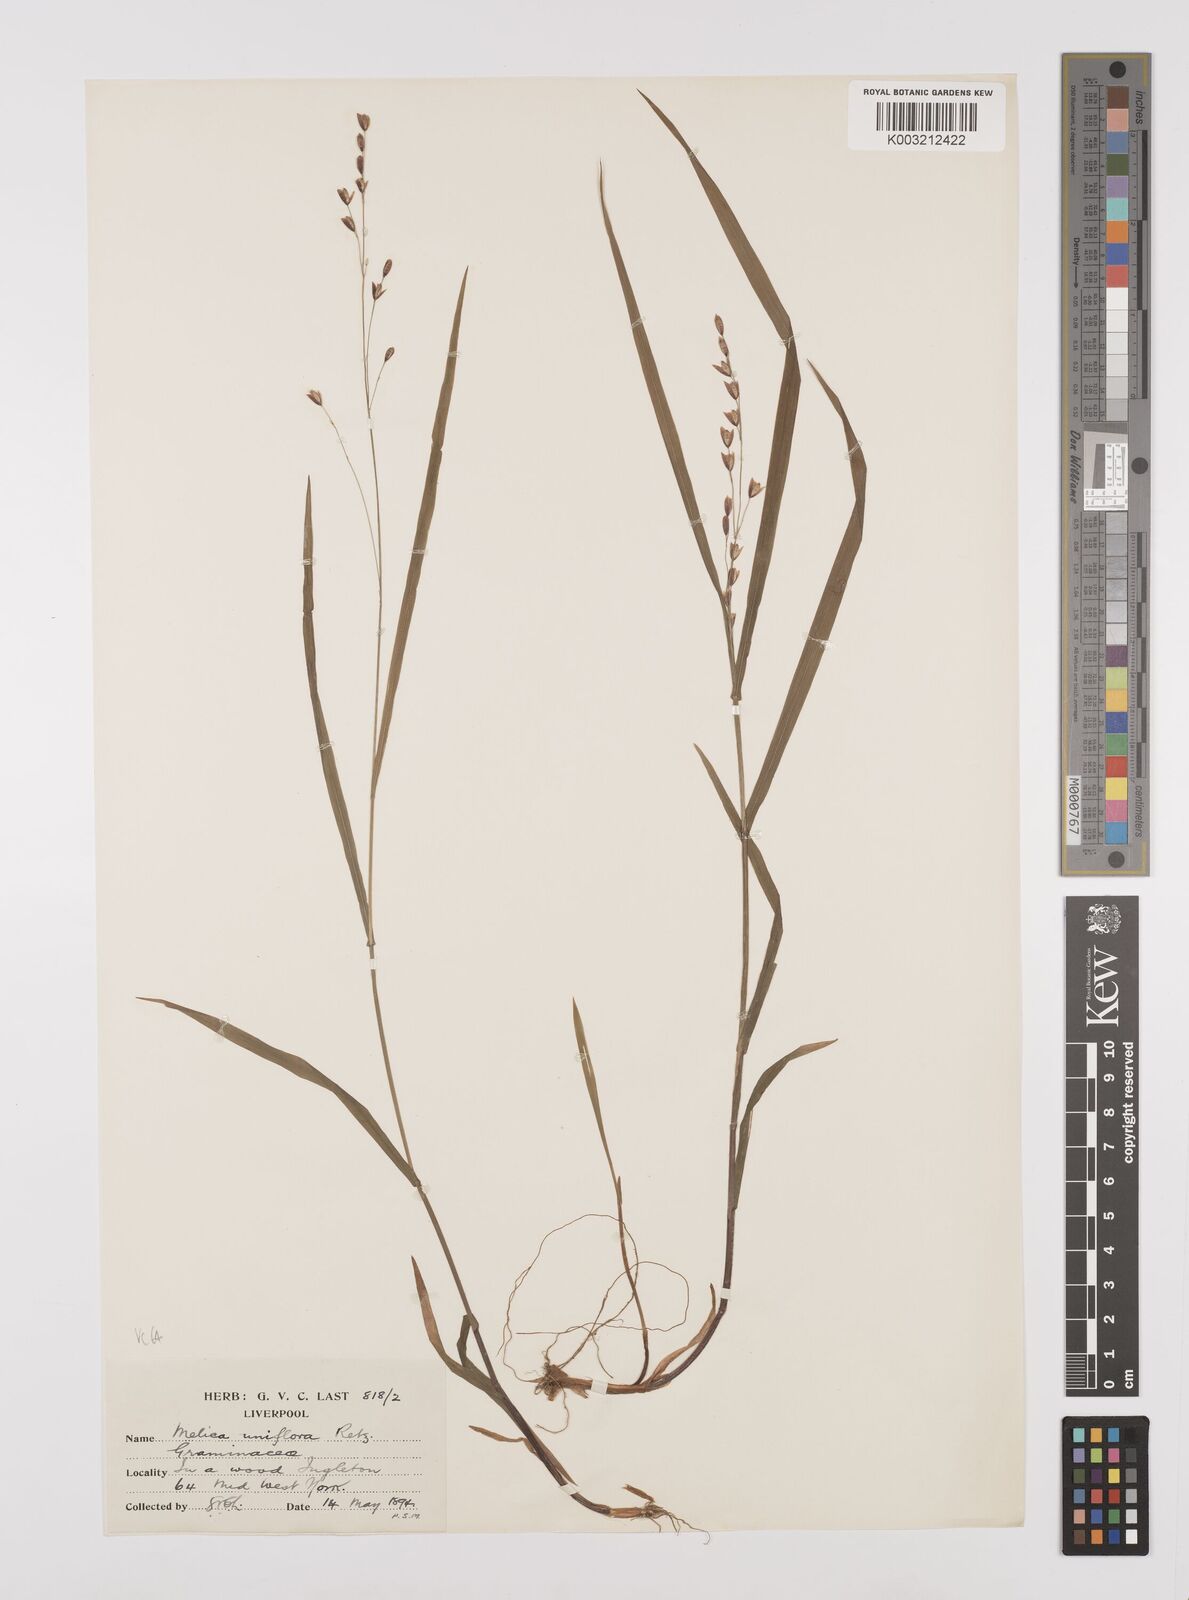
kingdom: Plantae
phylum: Tracheophyta
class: Liliopsida
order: Poales
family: Poaceae
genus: Melica
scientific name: Melica uniflora
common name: Wood melick
